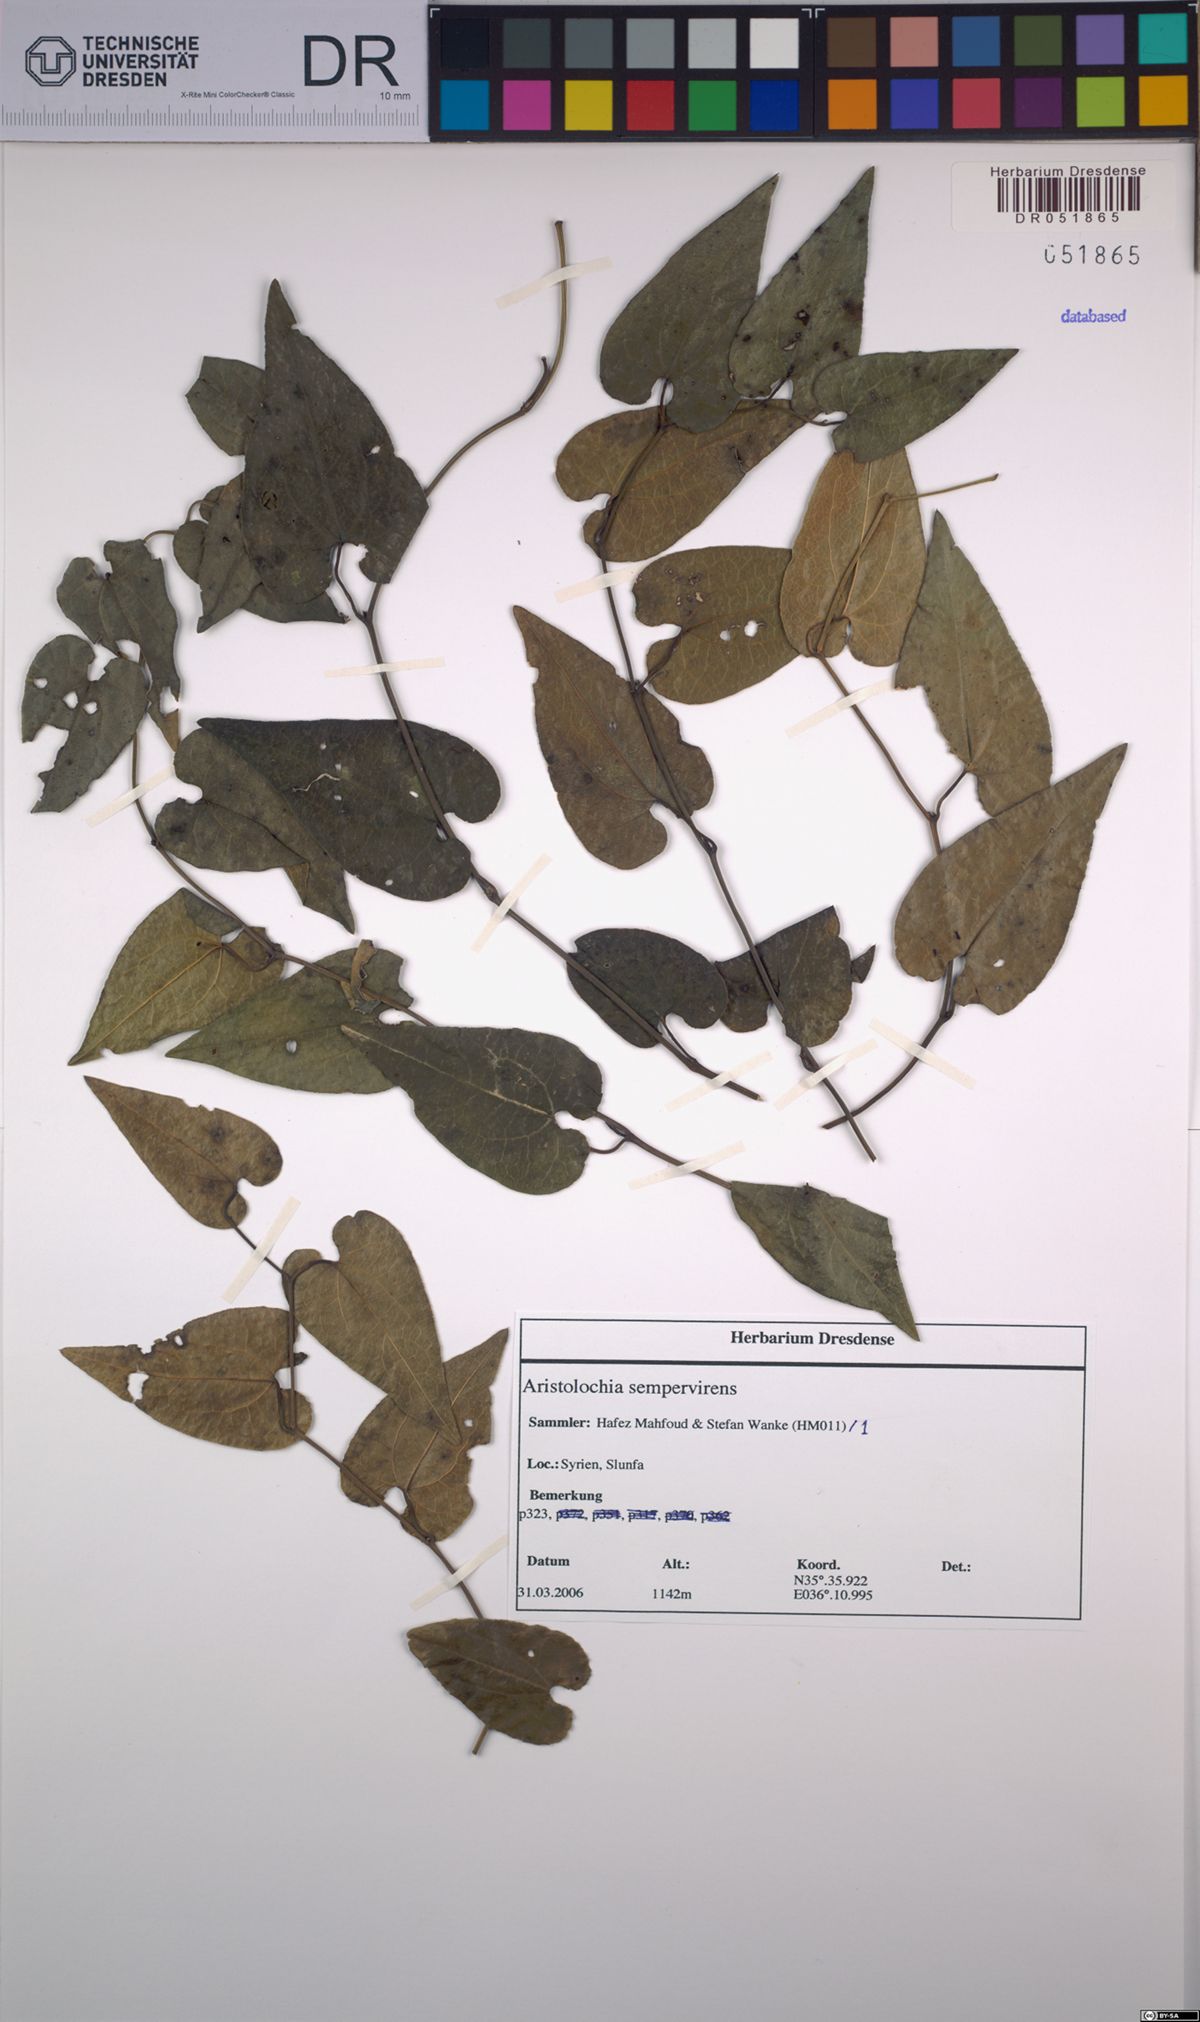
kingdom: Plantae
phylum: Tracheophyta
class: Magnoliopsida
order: Piperales
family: Aristolochiaceae
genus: Aristolochia
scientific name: Aristolochia sempervirens
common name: Long birthwort
